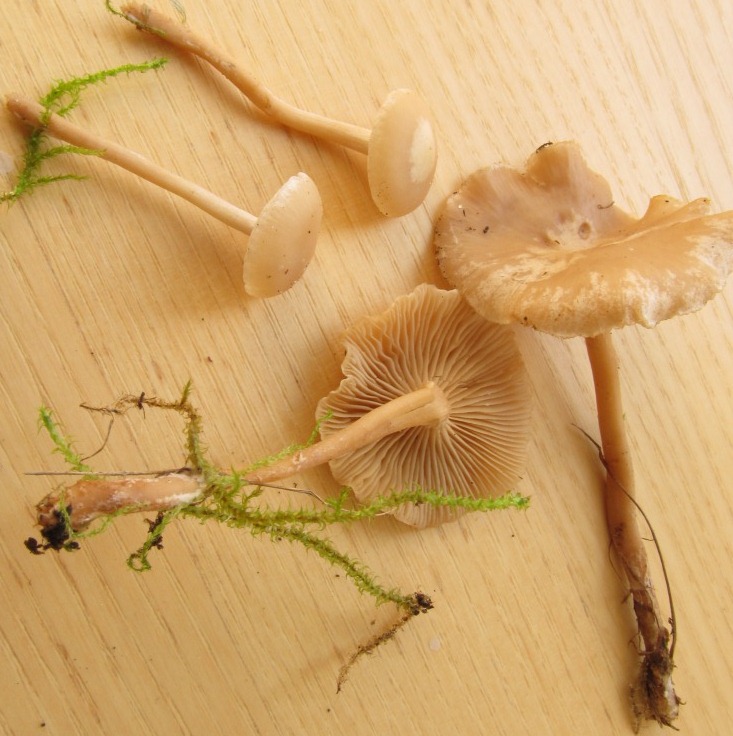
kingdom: Fungi
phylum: Basidiomycota
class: Agaricomycetes
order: Agaricales
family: Tricholomataceae
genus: Clitocybe
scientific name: Clitocybe agrestis
